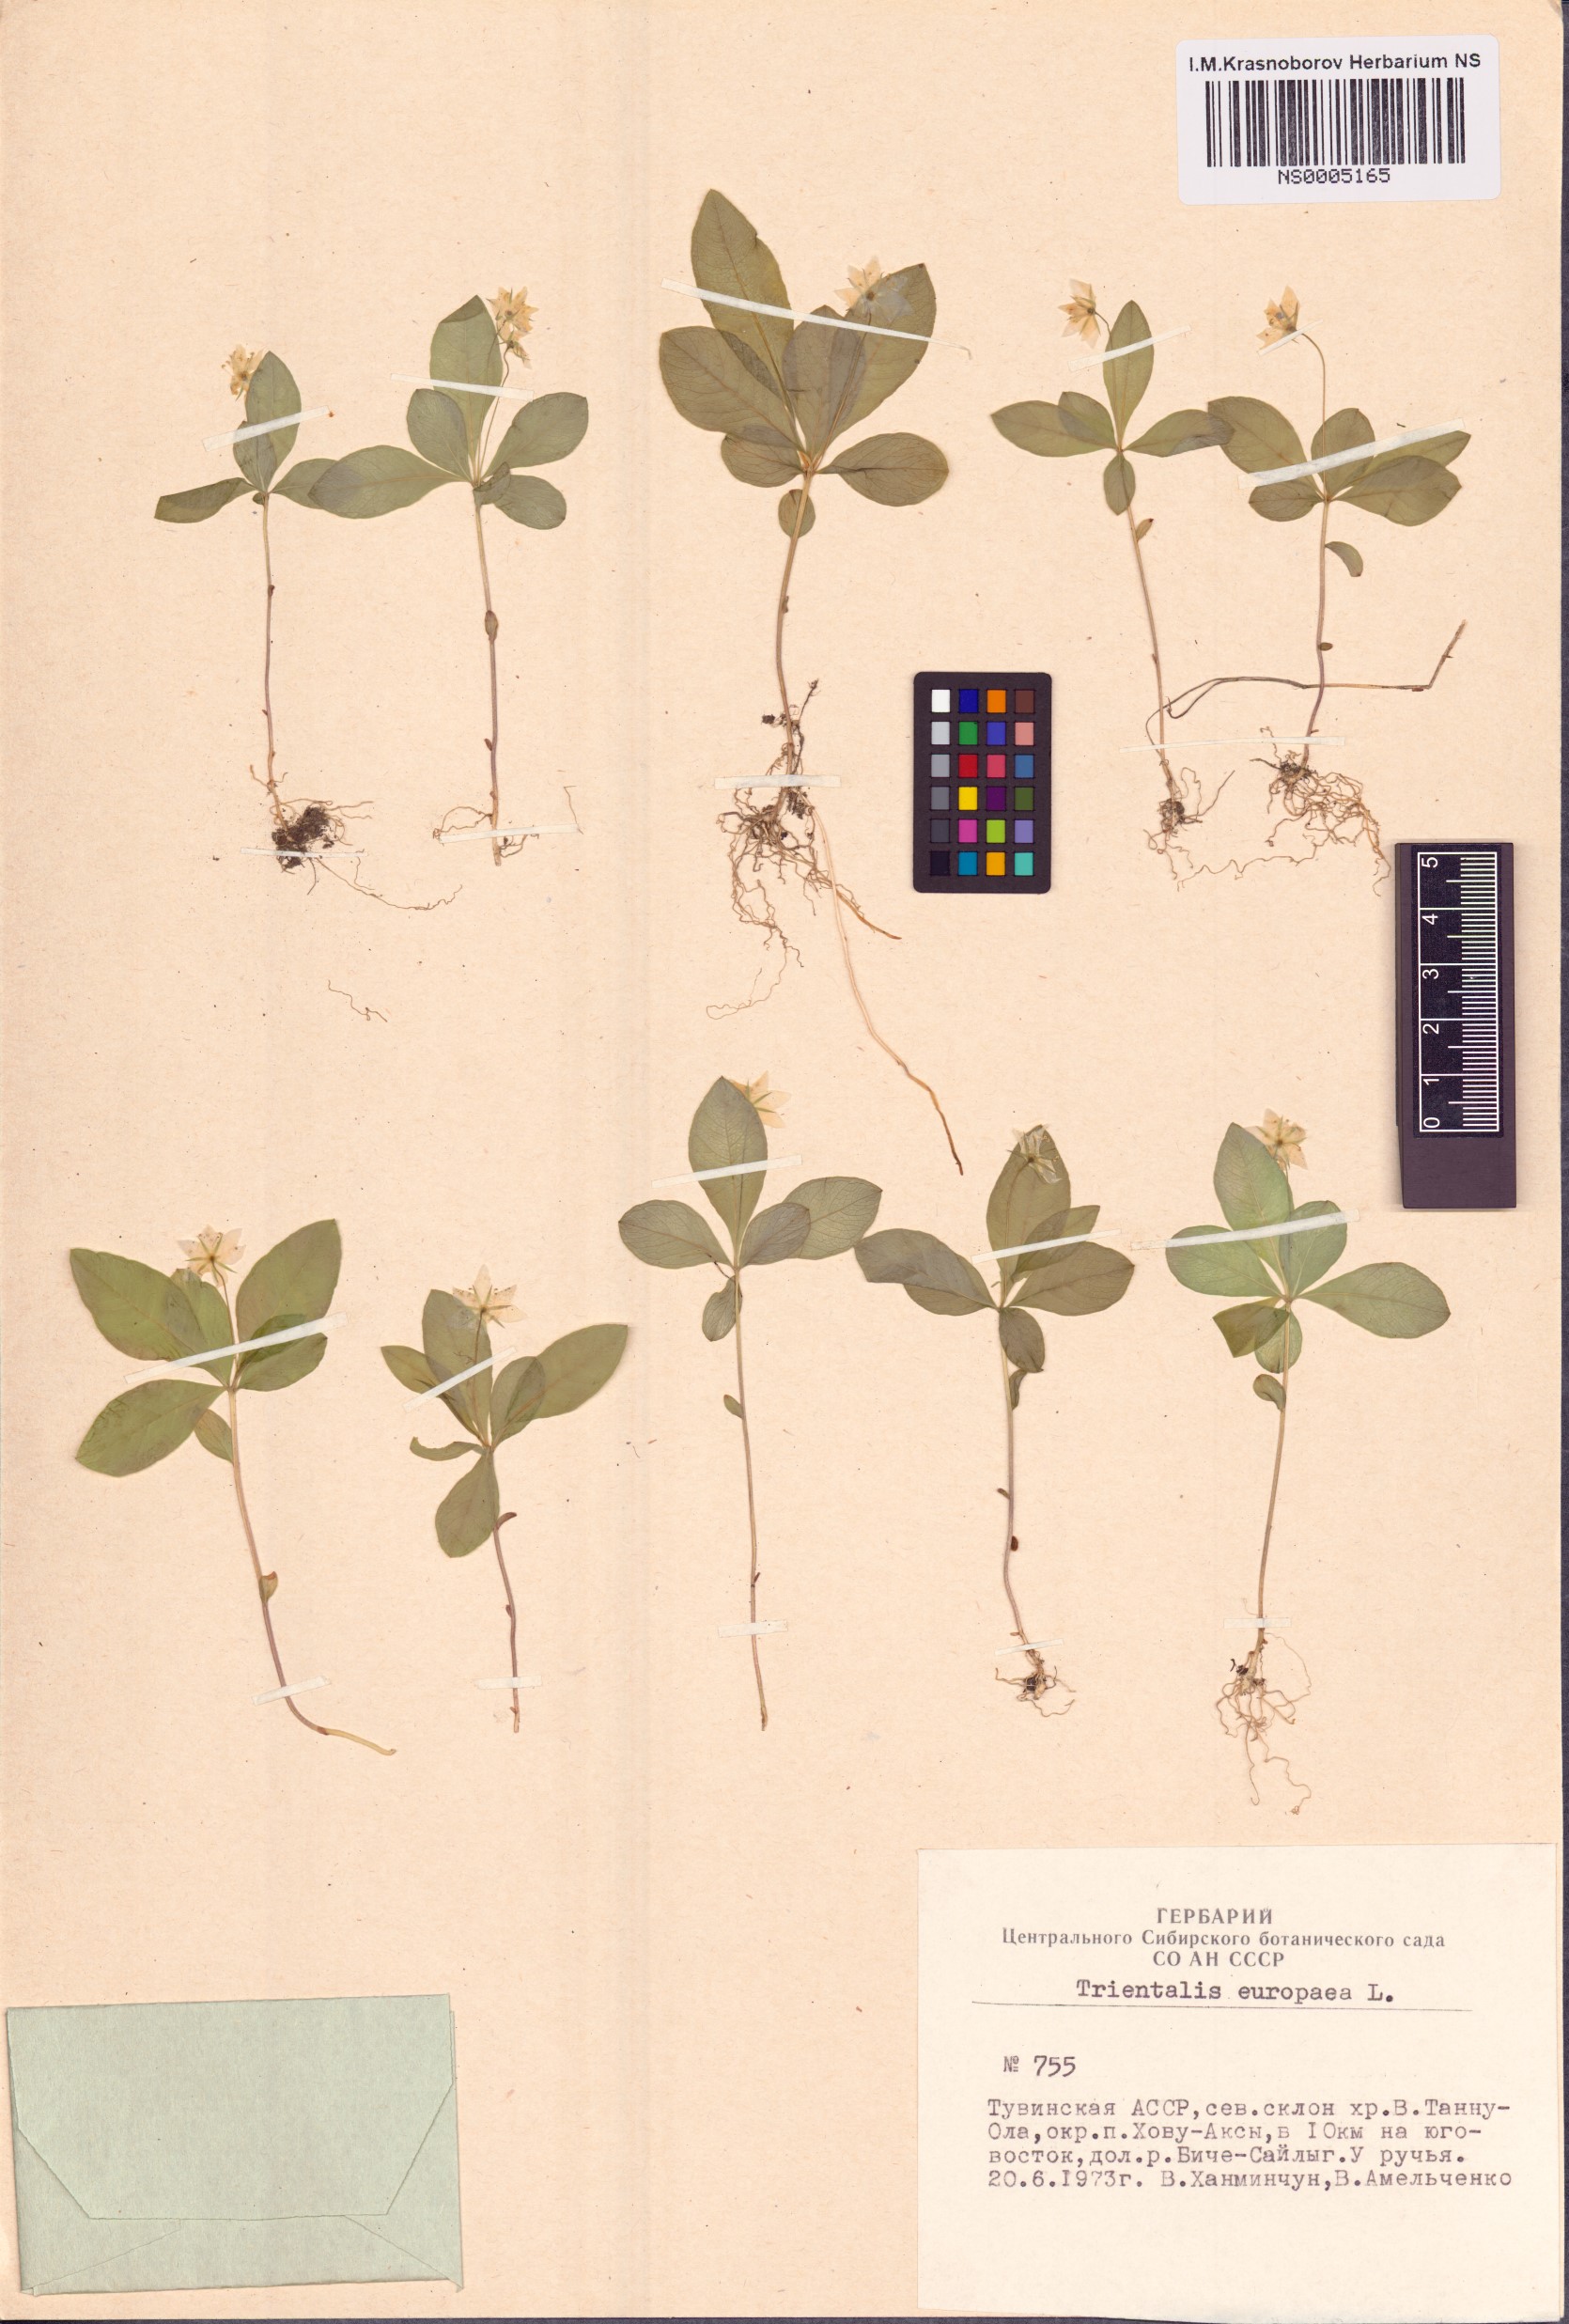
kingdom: Plantae
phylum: Tracheophyta
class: Magnoliopsida
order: Ericales
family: Primulaceae
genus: Lysimachia
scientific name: Lysimachia europaea
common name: Arctic starflower
